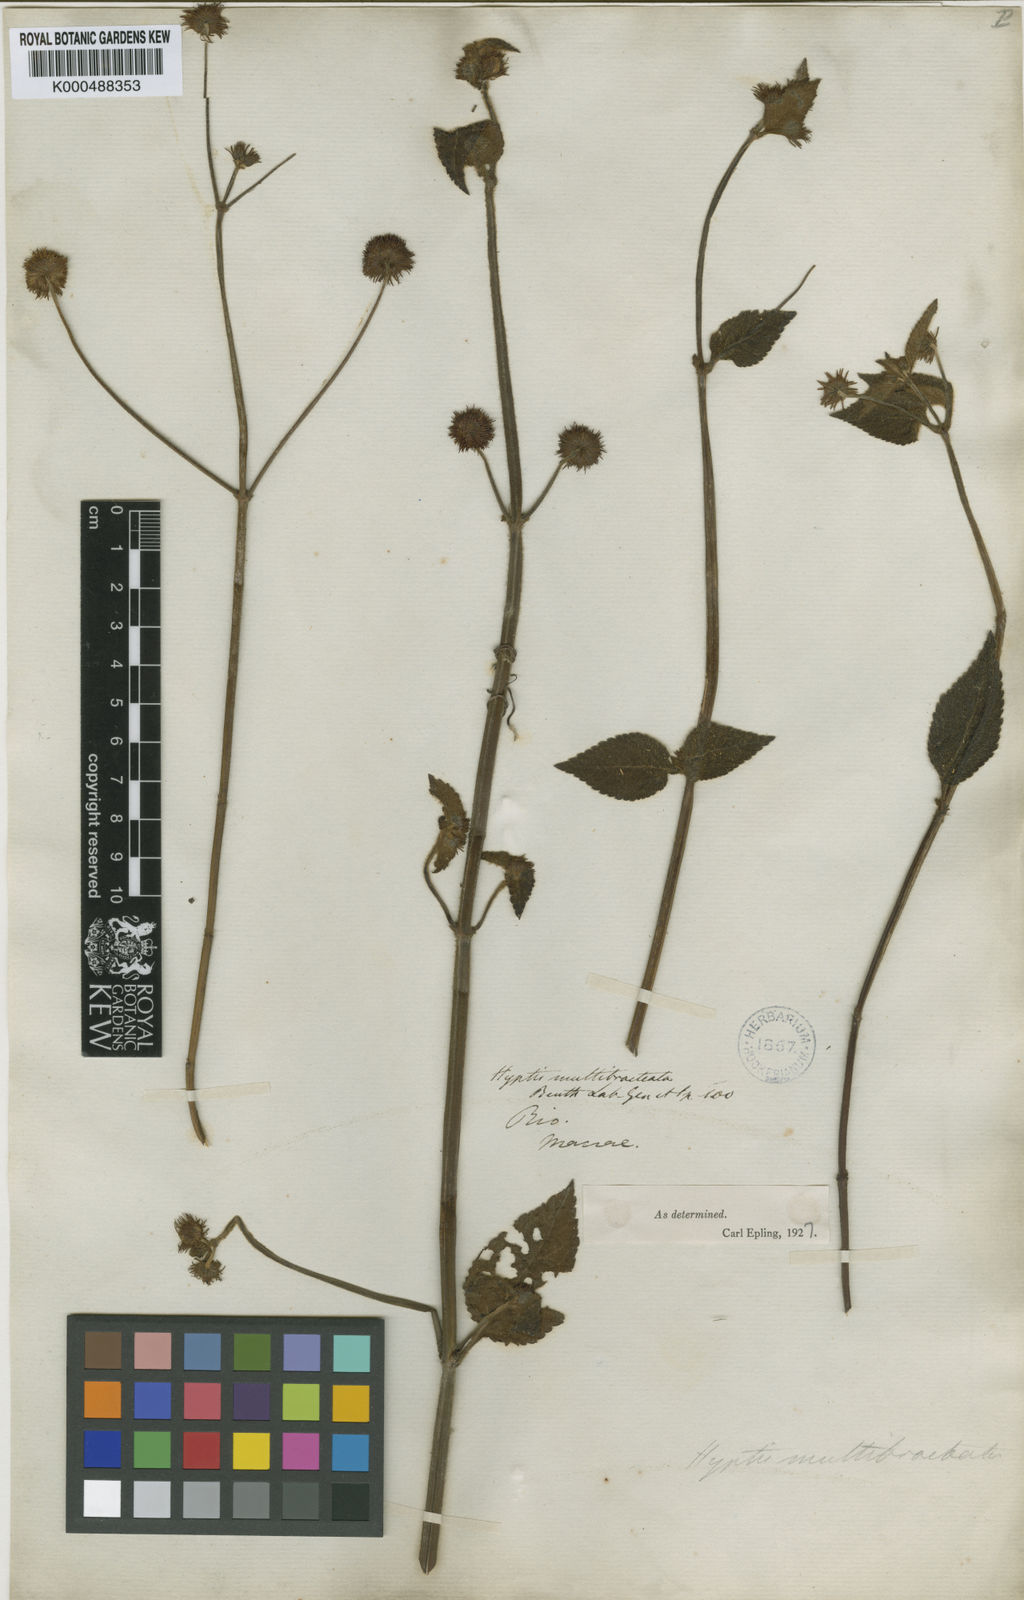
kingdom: Plantae
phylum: Tracheophyta
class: Magnoliopsida
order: Lamiales
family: Lamiaceae
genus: Hyptis
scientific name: Hyptis multibracteata
